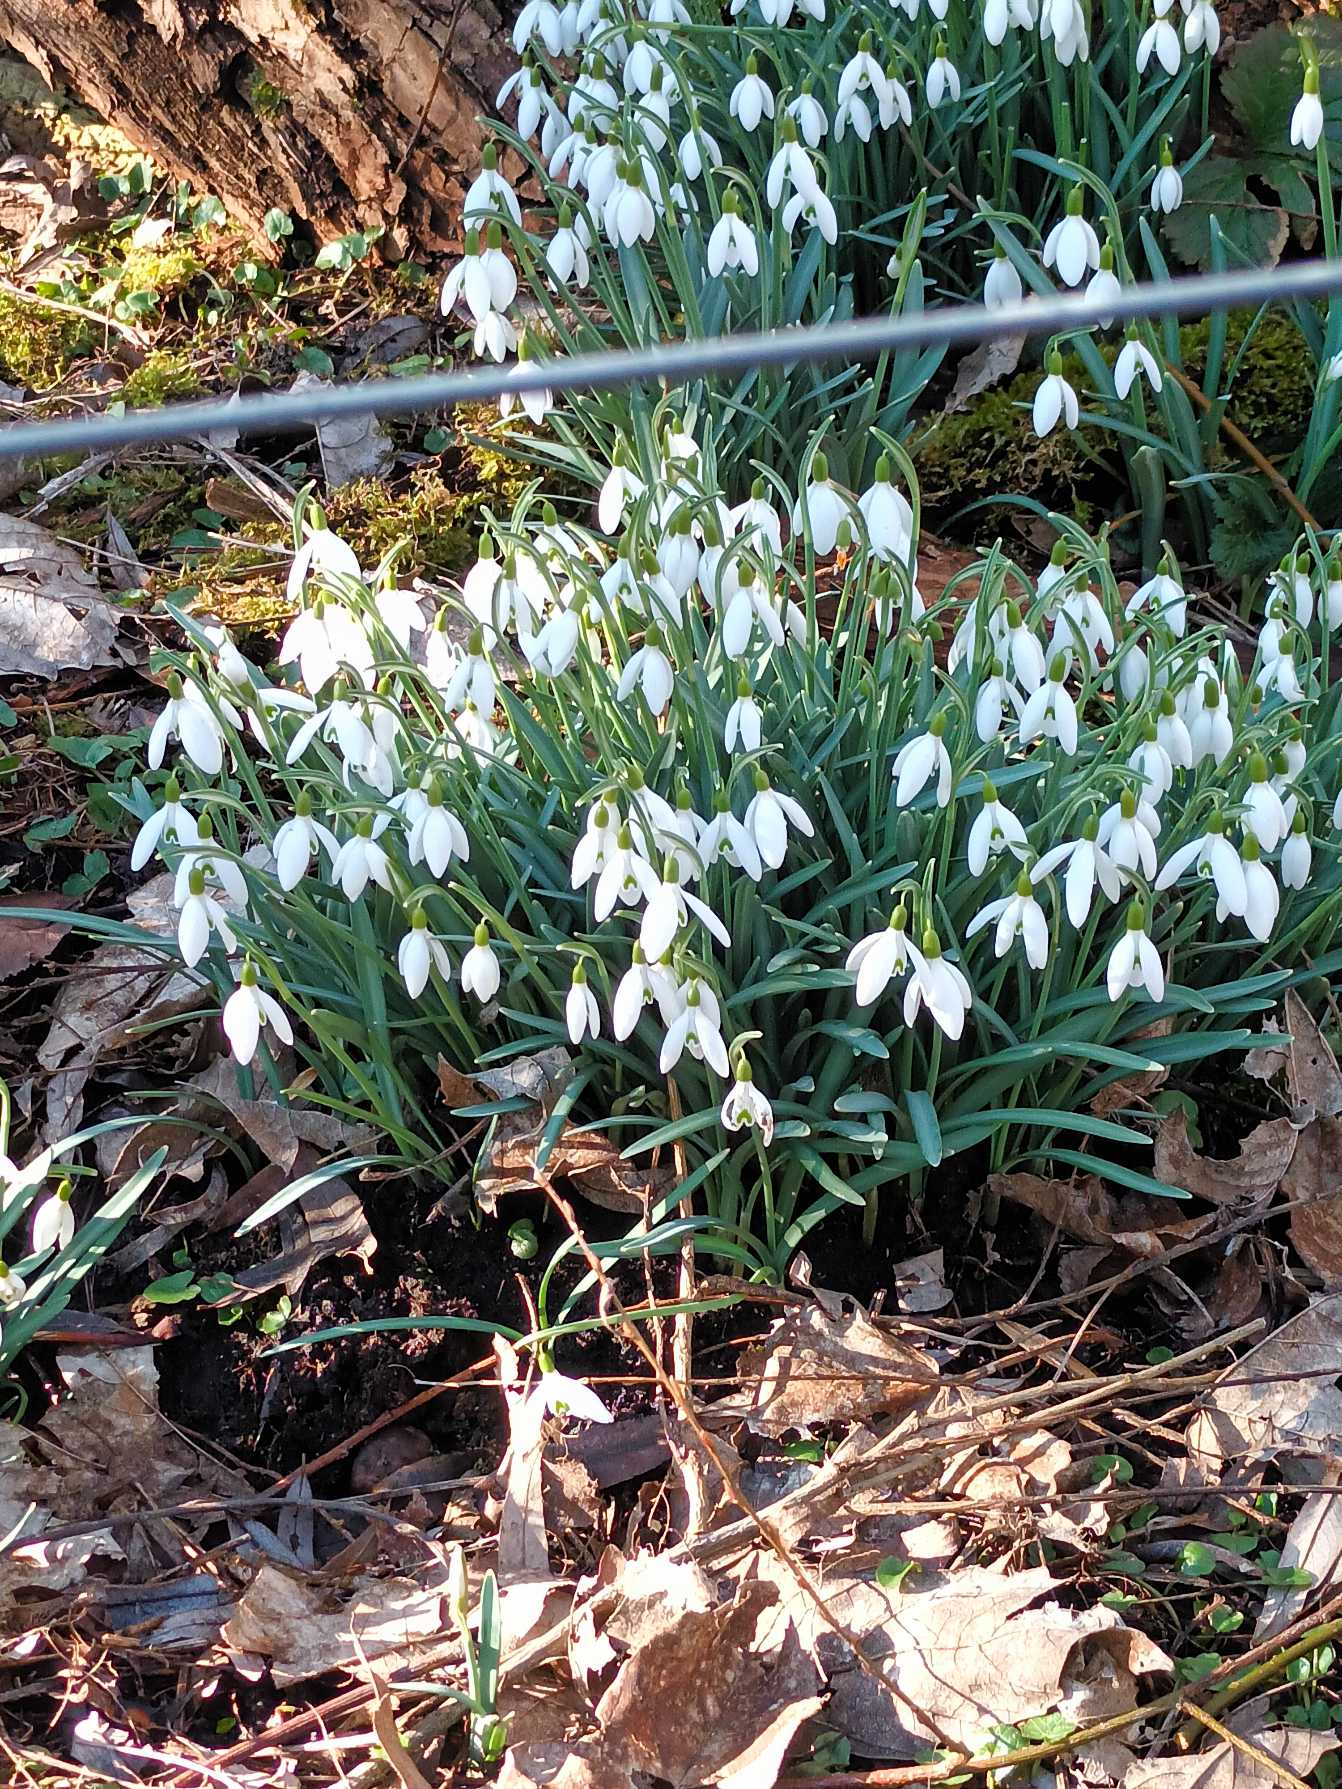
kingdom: Plantae
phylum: Tracheophyta
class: Liliopsida
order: Asparagales
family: Amaryllidaceae
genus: Galanthus
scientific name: Galanthus nivalis
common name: Vintergæk
